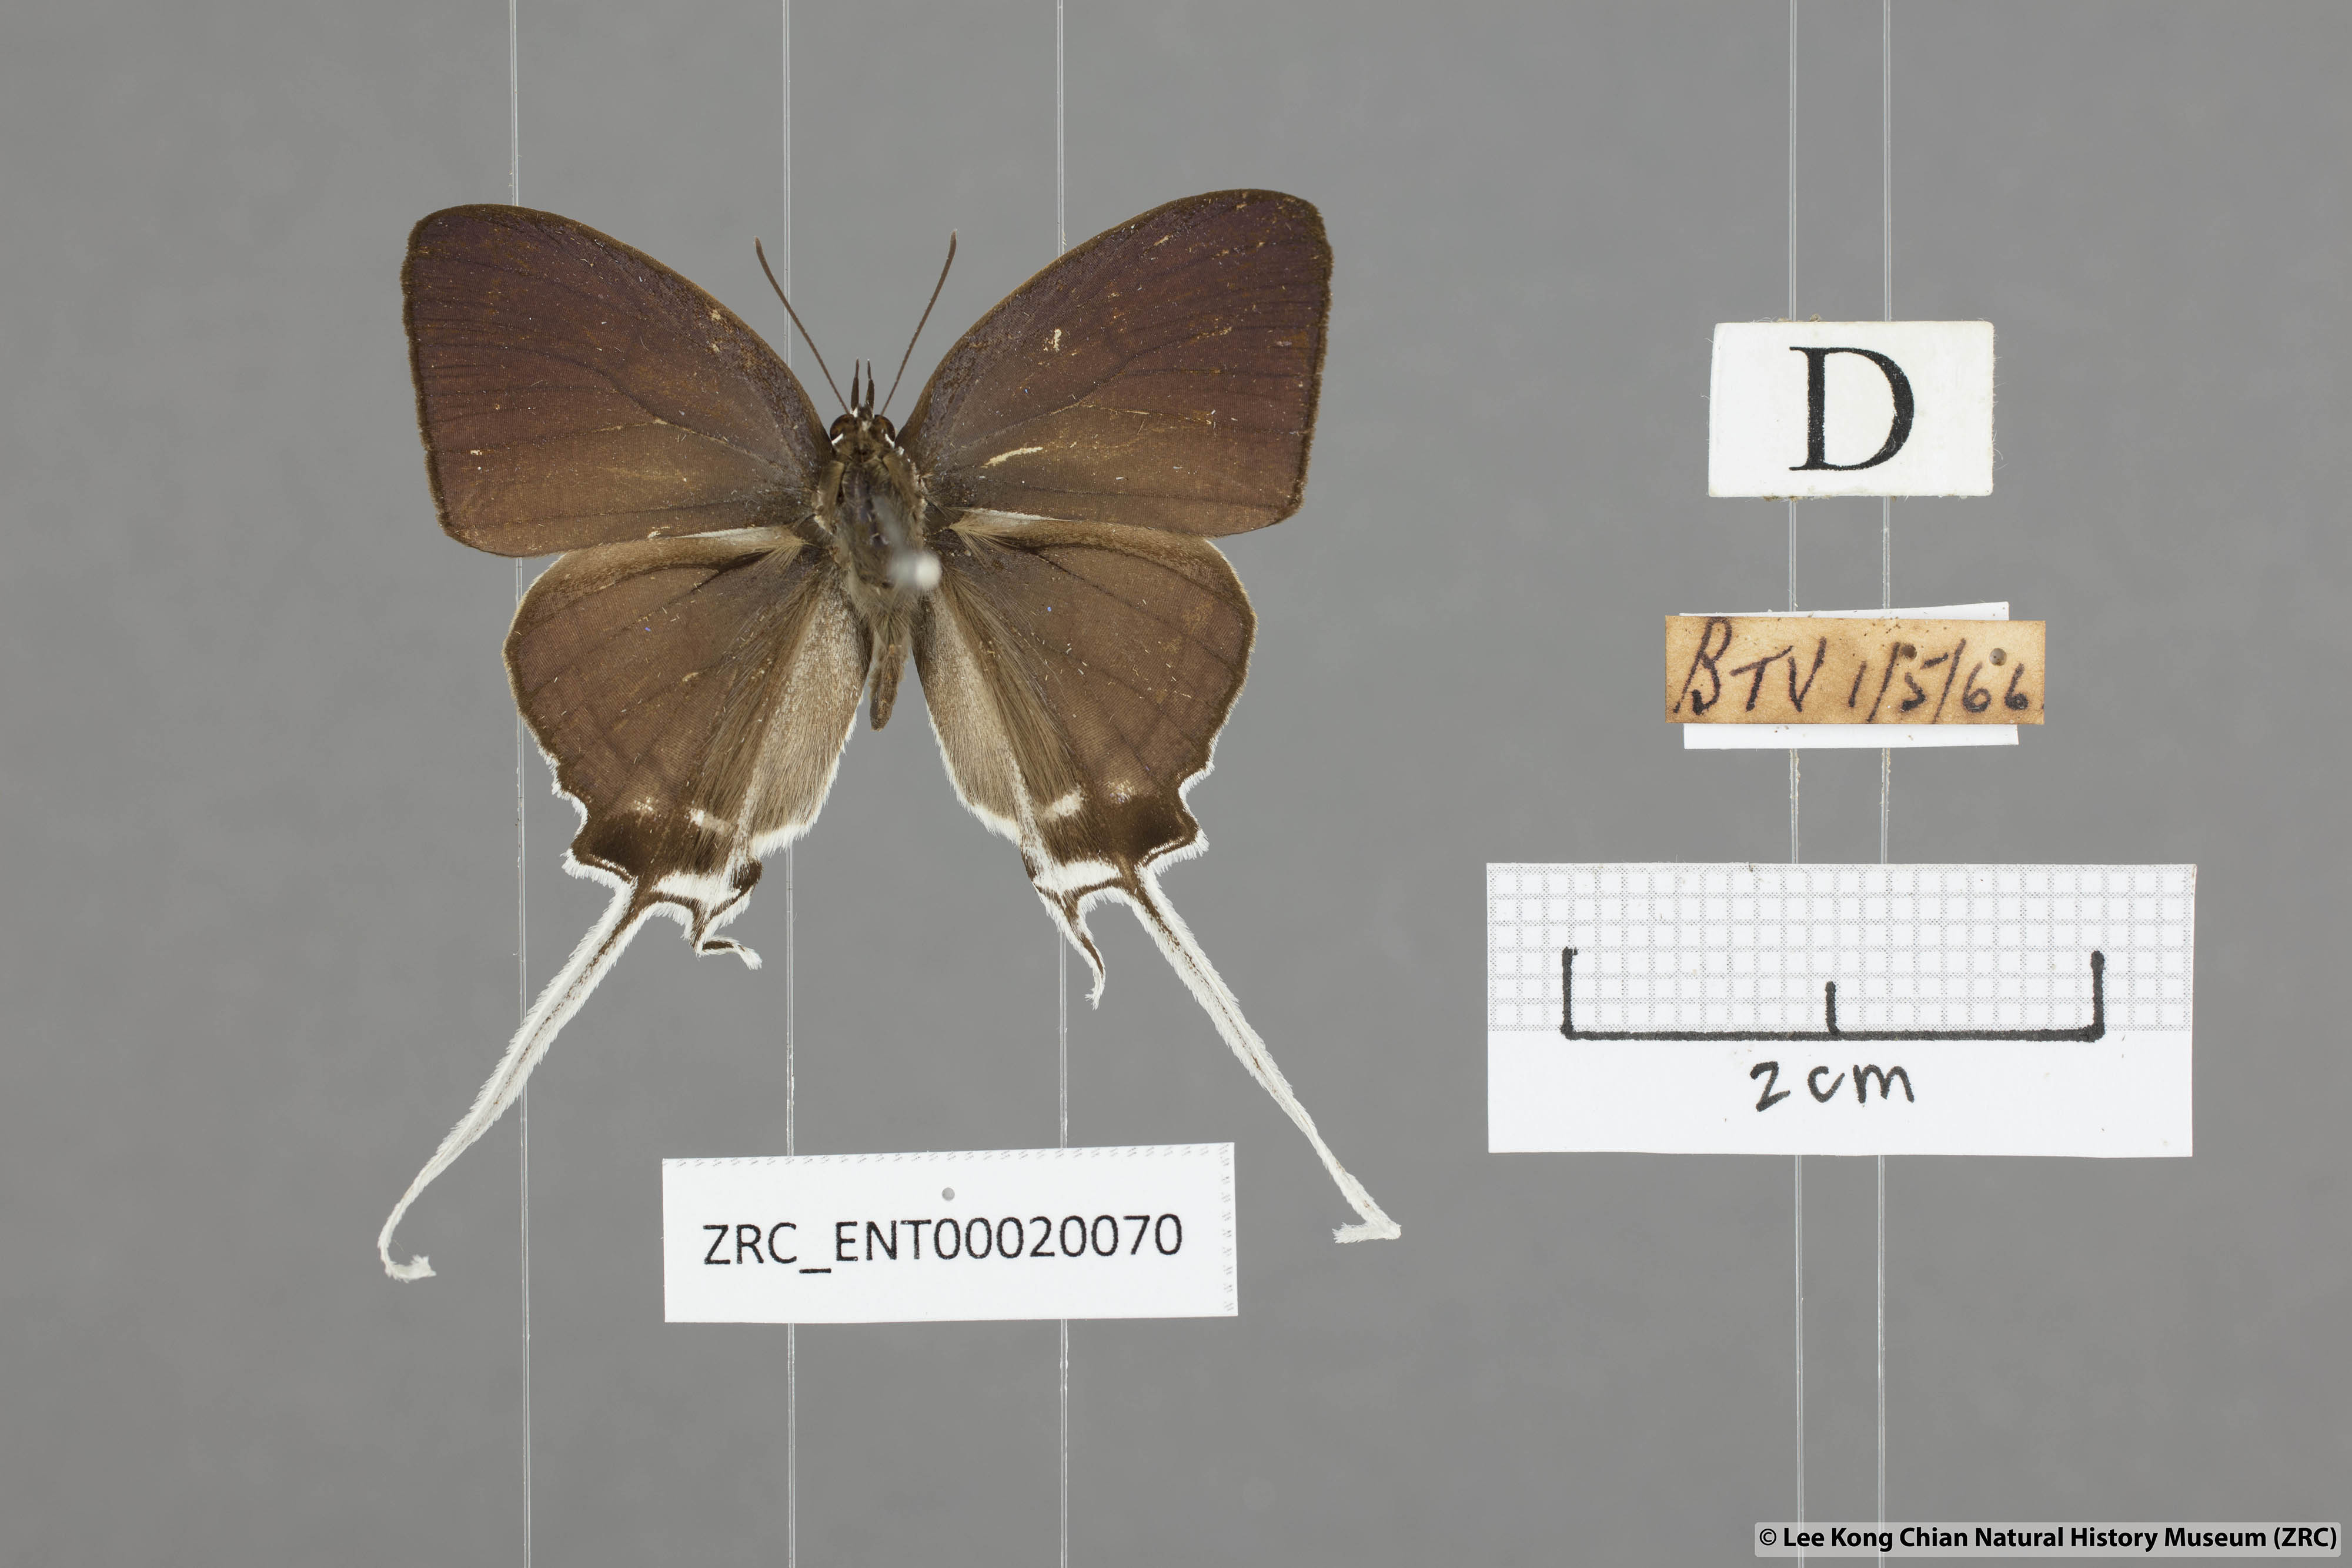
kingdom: Animalia
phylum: Arthropoda
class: Insecta
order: Lepidoptera
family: Lycaenidae
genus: Cheritra
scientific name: Cheritra freja
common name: Common imperial
